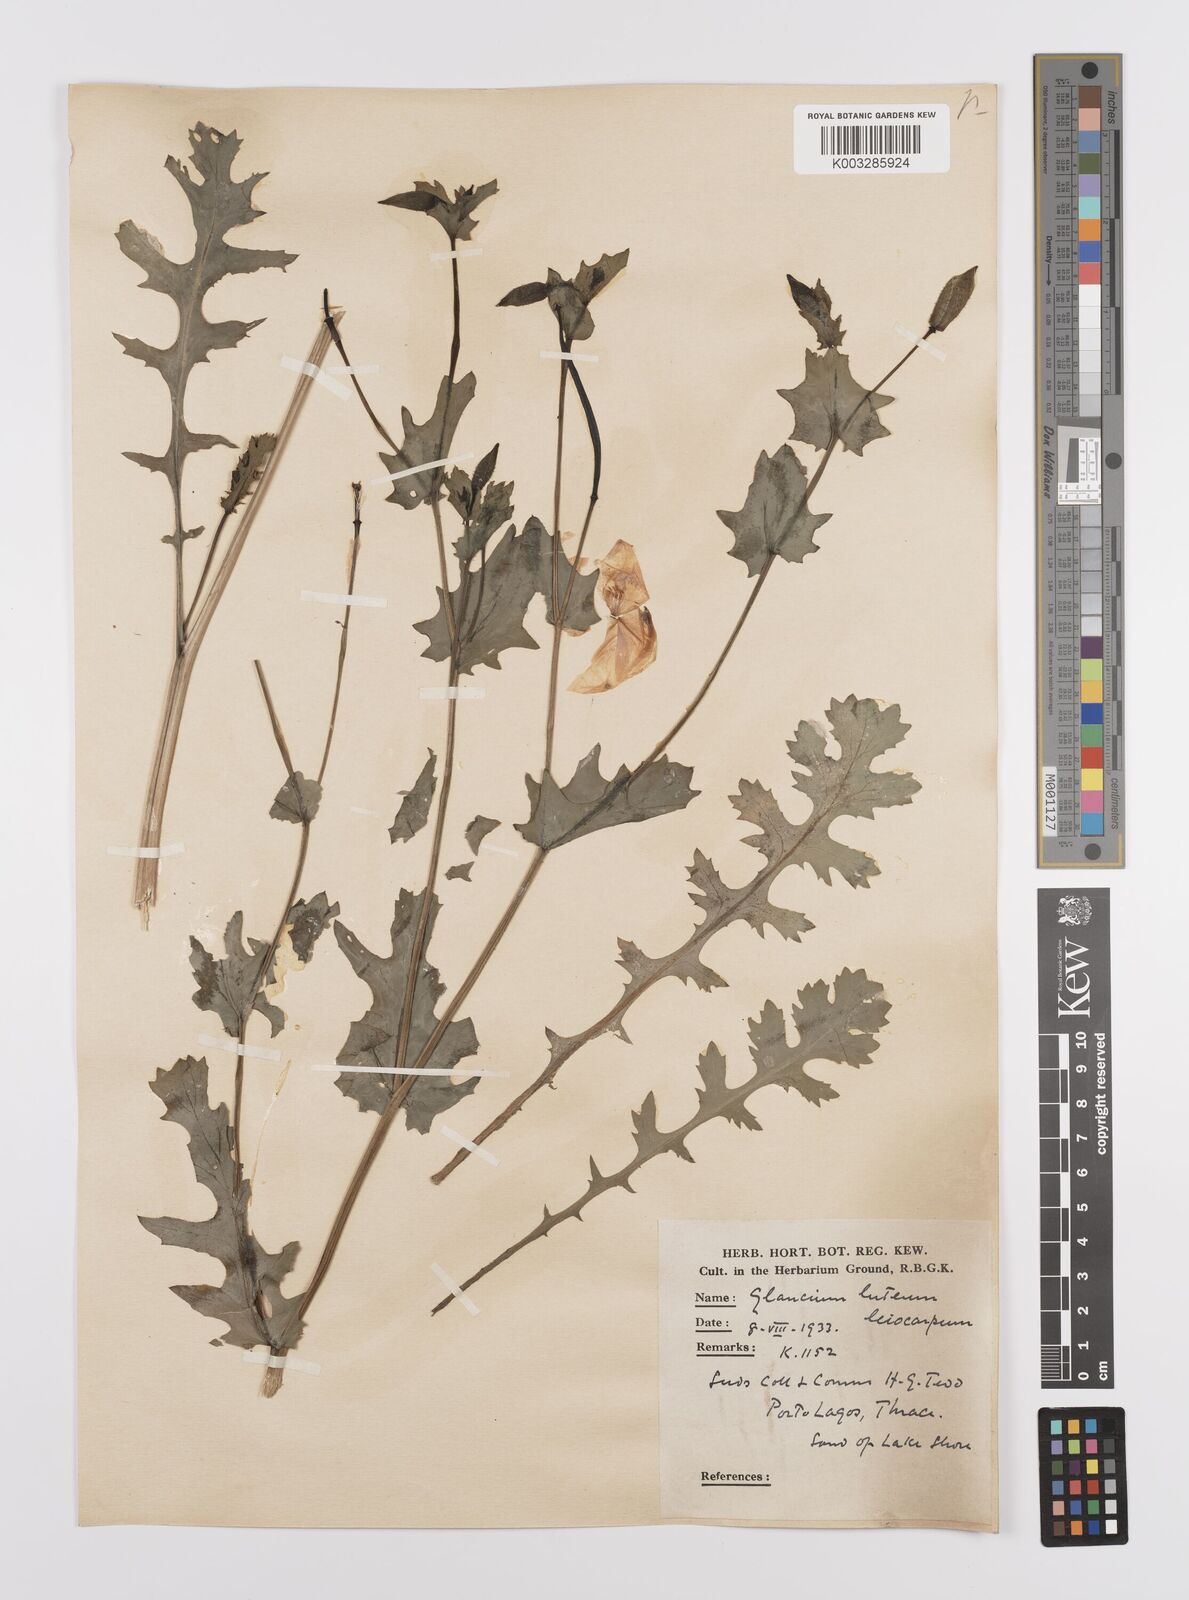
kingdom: Plantae
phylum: Tracheophyta
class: Magnoliopsida
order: Ranunculales
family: Papaveraceae
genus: Glaucium
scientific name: Glaucium flavum
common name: Yellow horned-poppy
